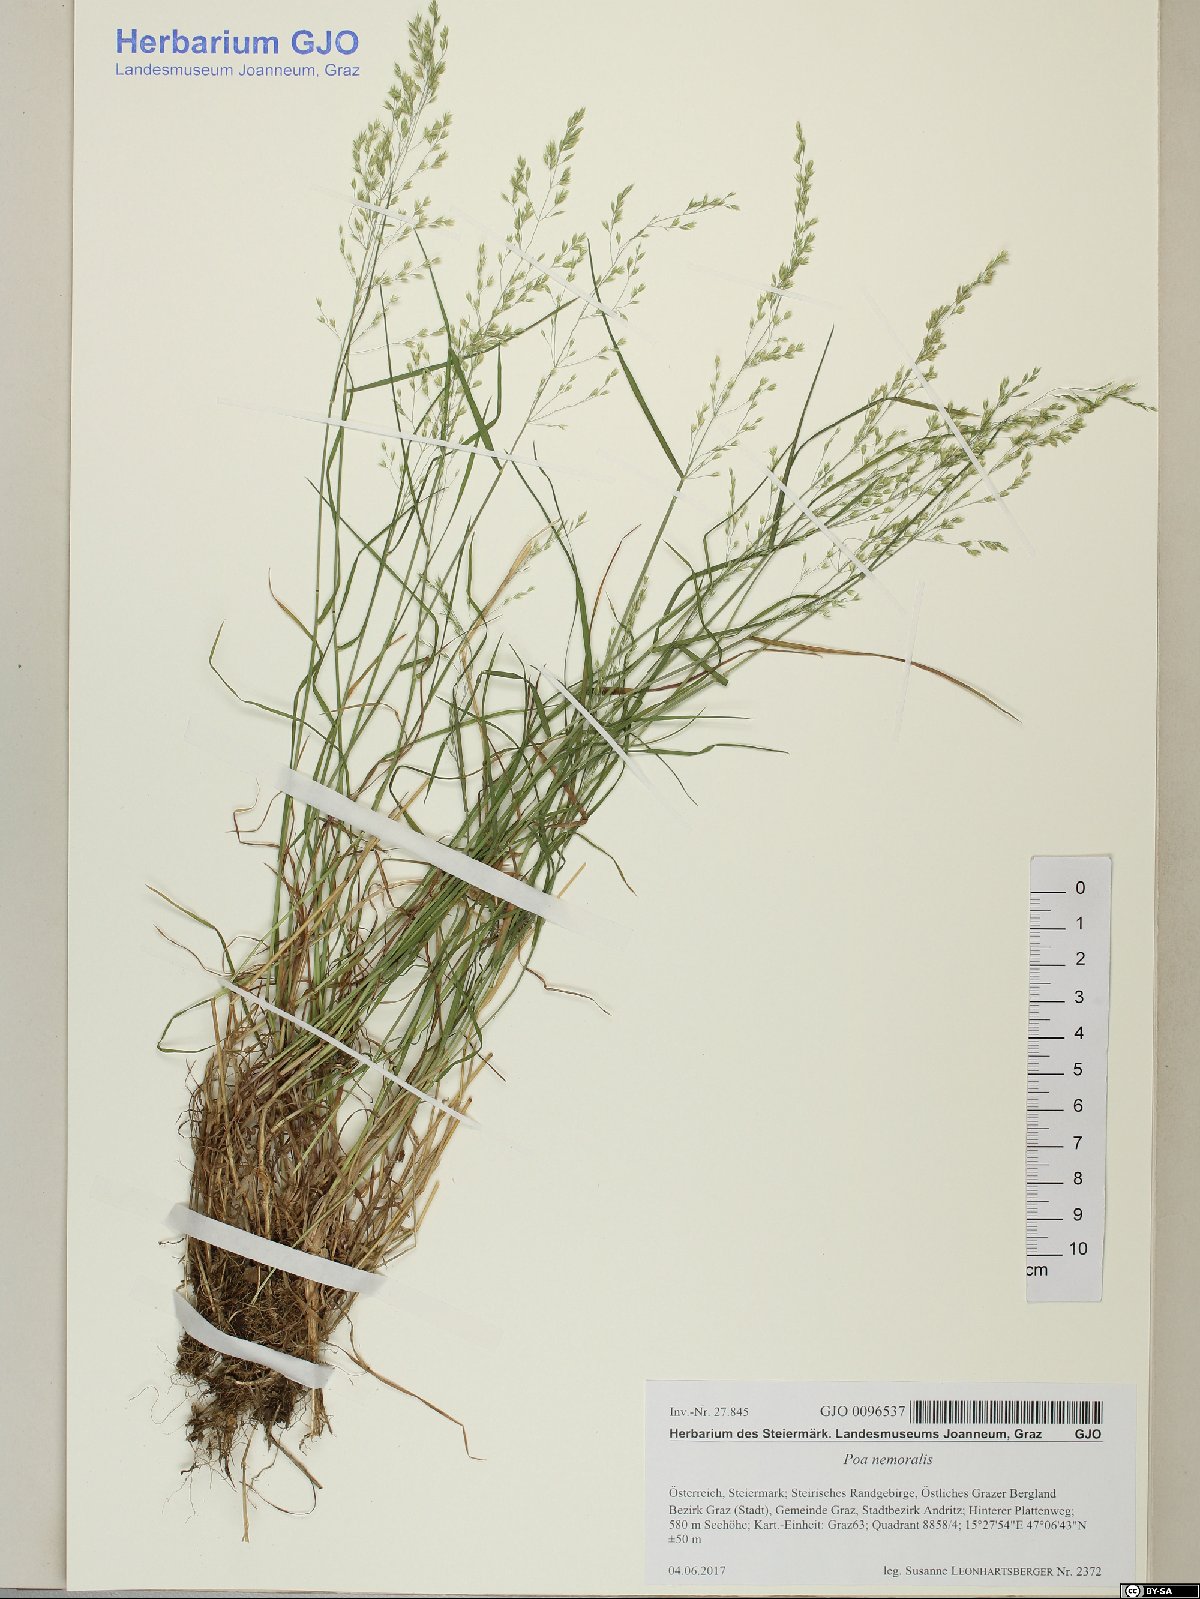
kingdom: Plantae
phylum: Tracheophyta
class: Liliopsida
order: Poales
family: Poaceae
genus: Poa
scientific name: Poa nemoralis
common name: Wood bluegrass
